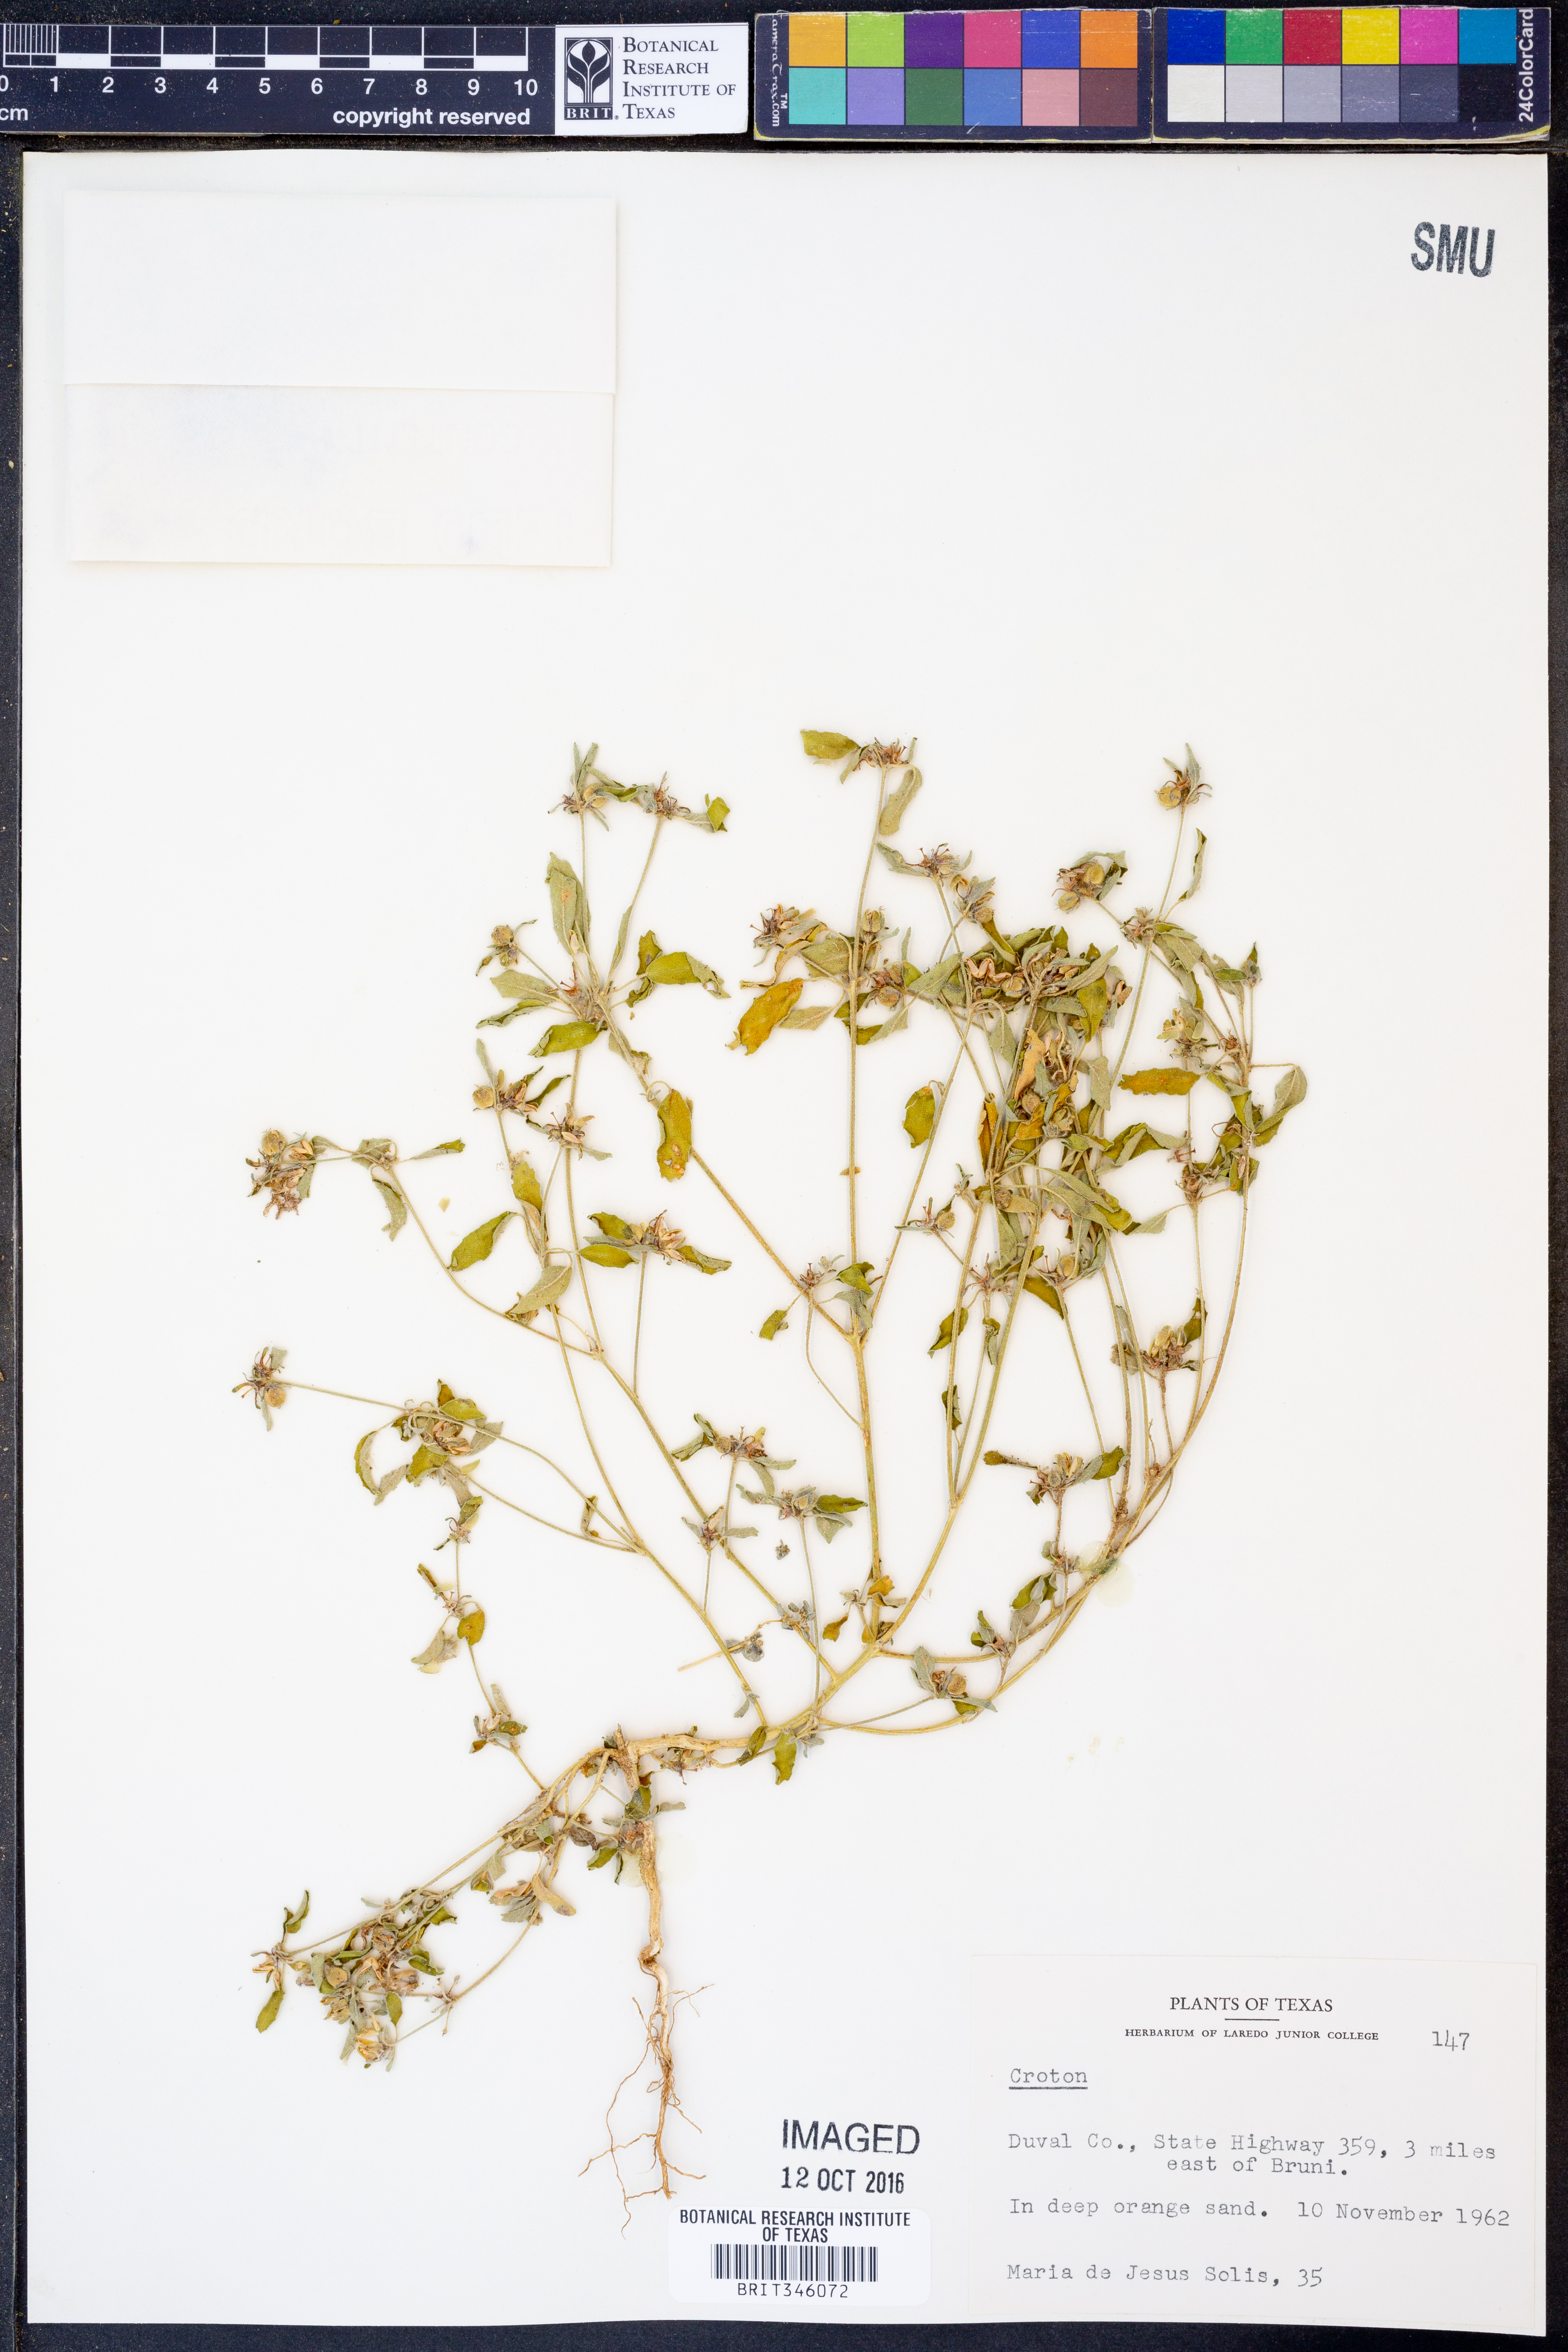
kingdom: Plantae
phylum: Tracheophyta
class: Magnoliopsida
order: Malpighiales
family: Euphorbiaceae
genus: Croton
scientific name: Croton
